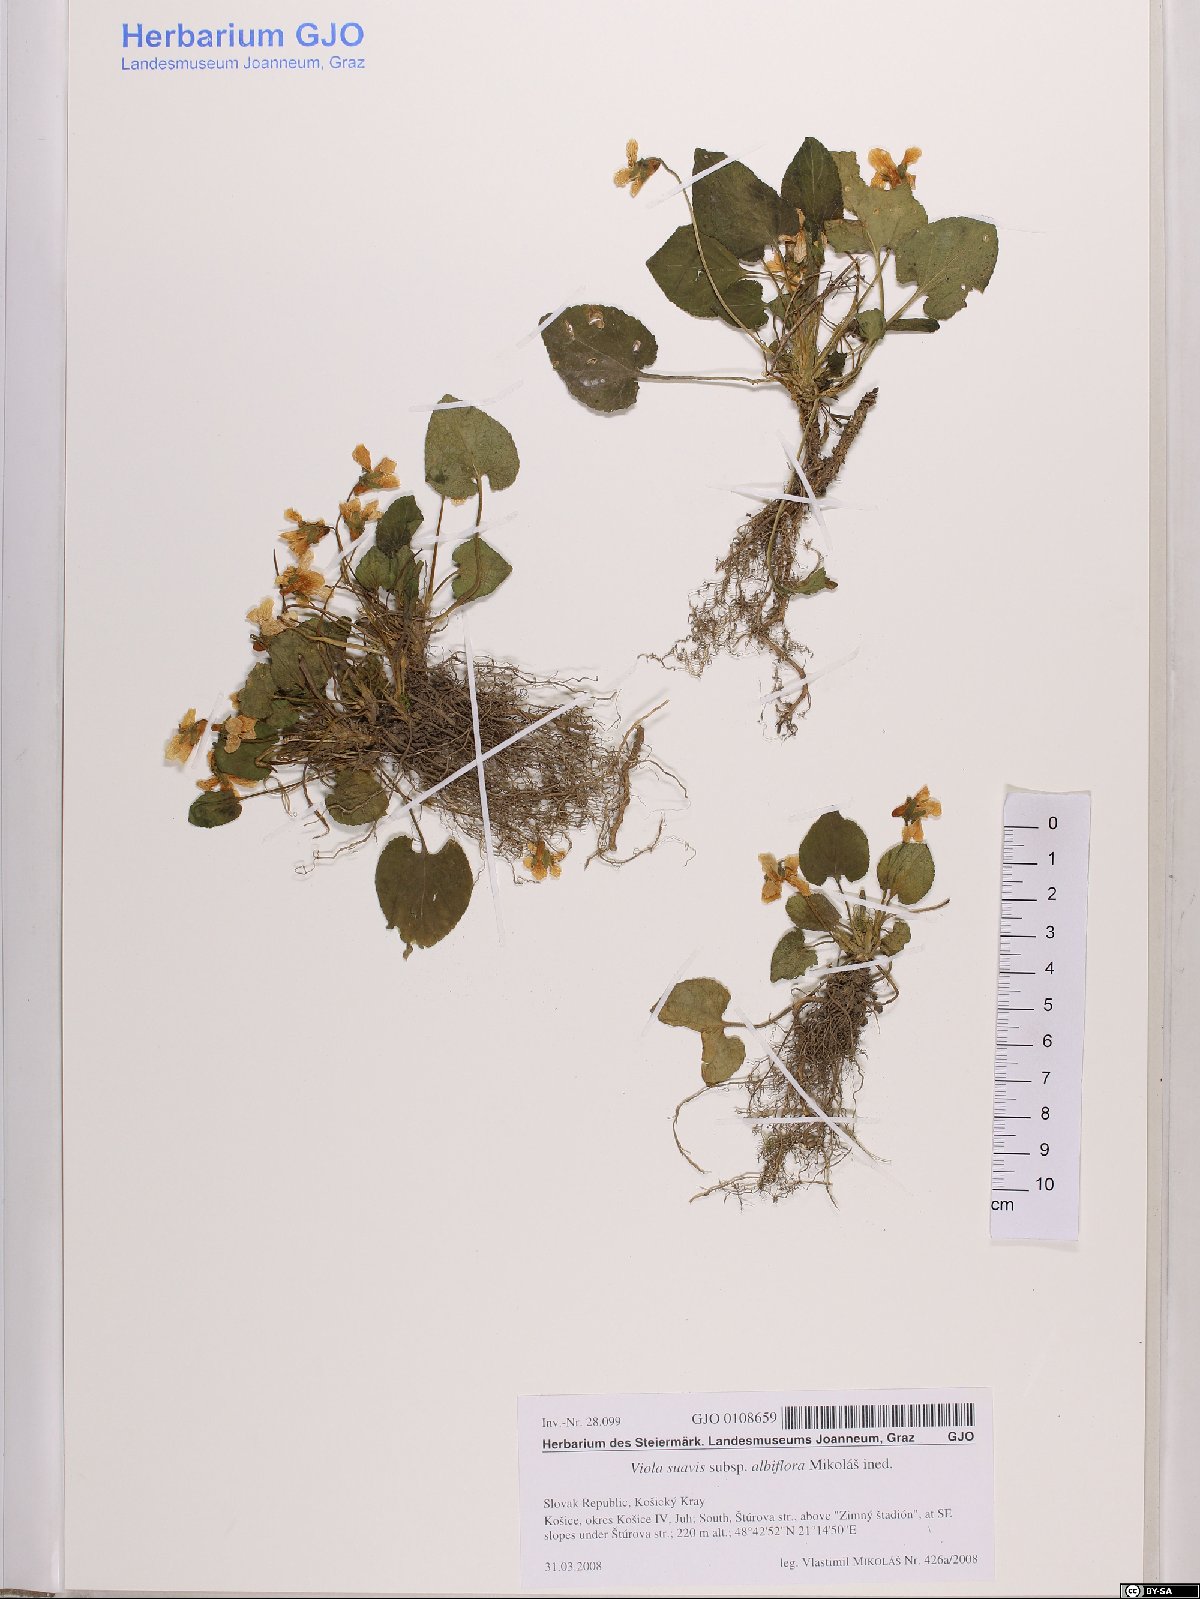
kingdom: Plantae
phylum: Tracheophyta
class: Magnoliopsida
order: Malpighiales
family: Violaceae
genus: Viola
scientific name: Viola suavis
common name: Russian violet
